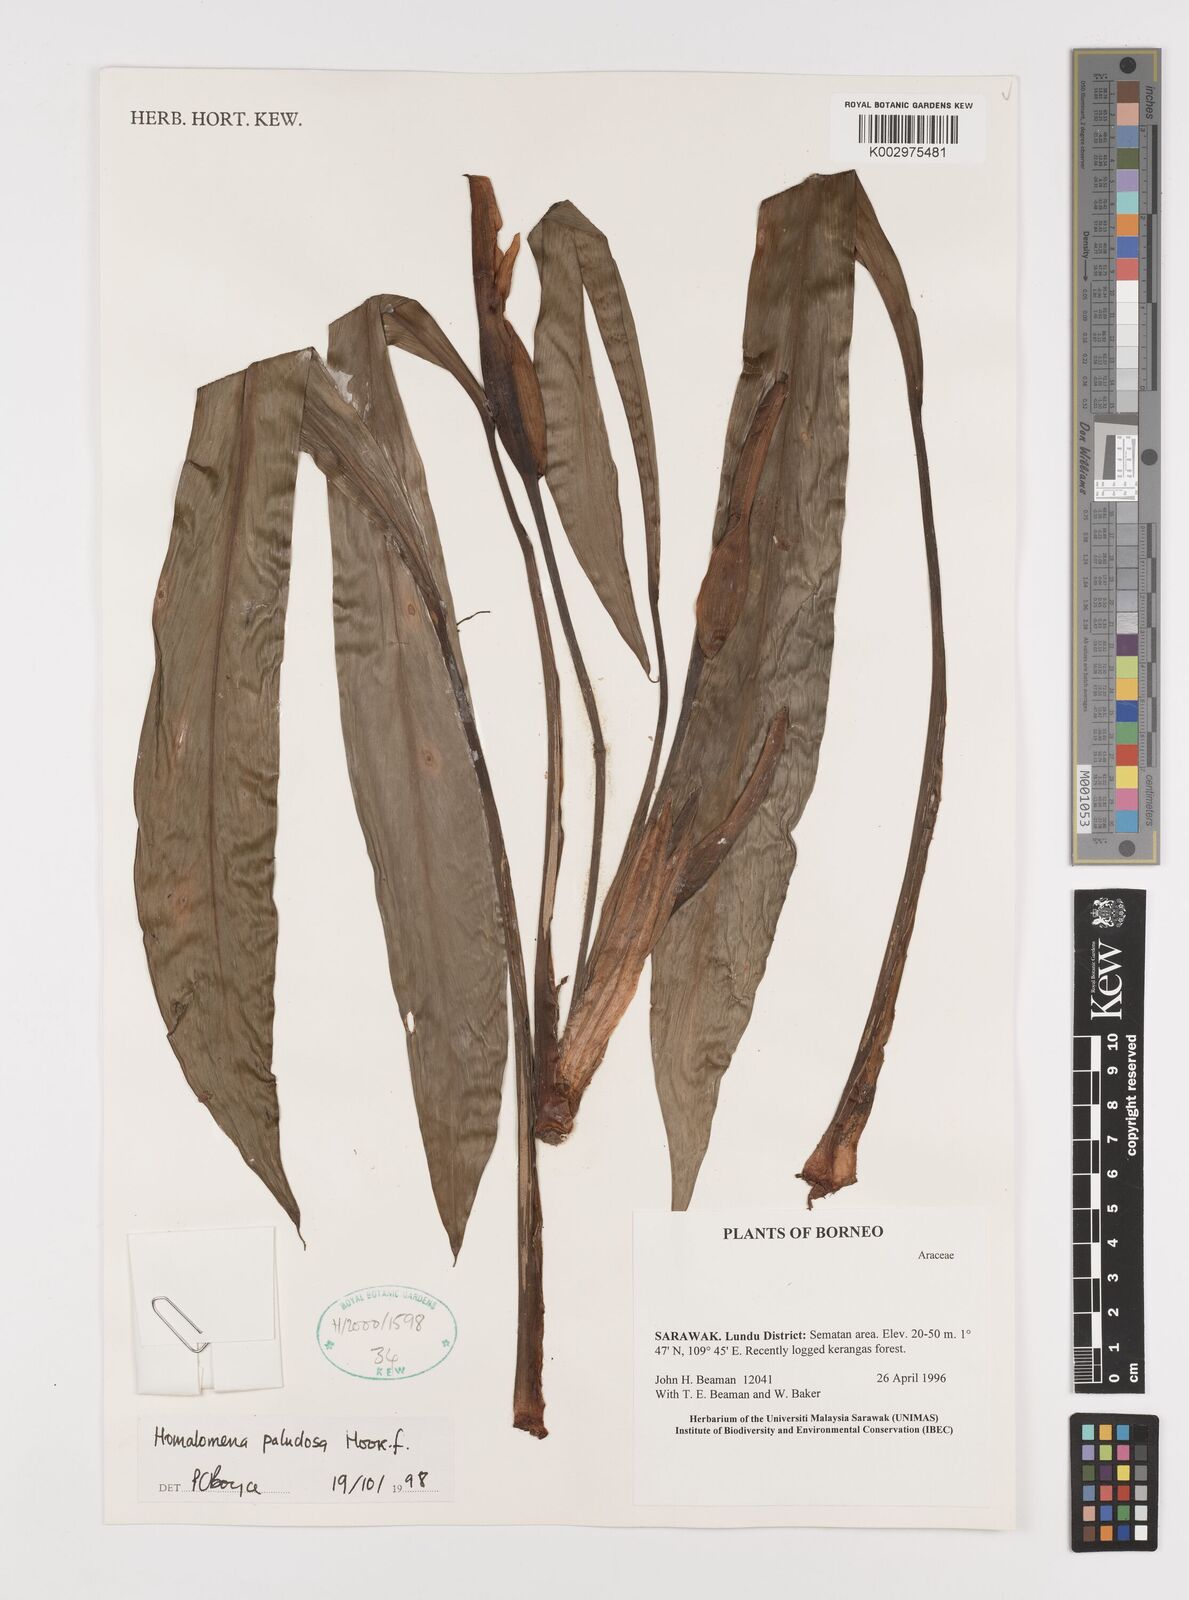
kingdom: Plantae
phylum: Tracheophyta
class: Liliopsida
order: Alismatales
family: Araceae
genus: Homalomena
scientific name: Homalomena rostrata
